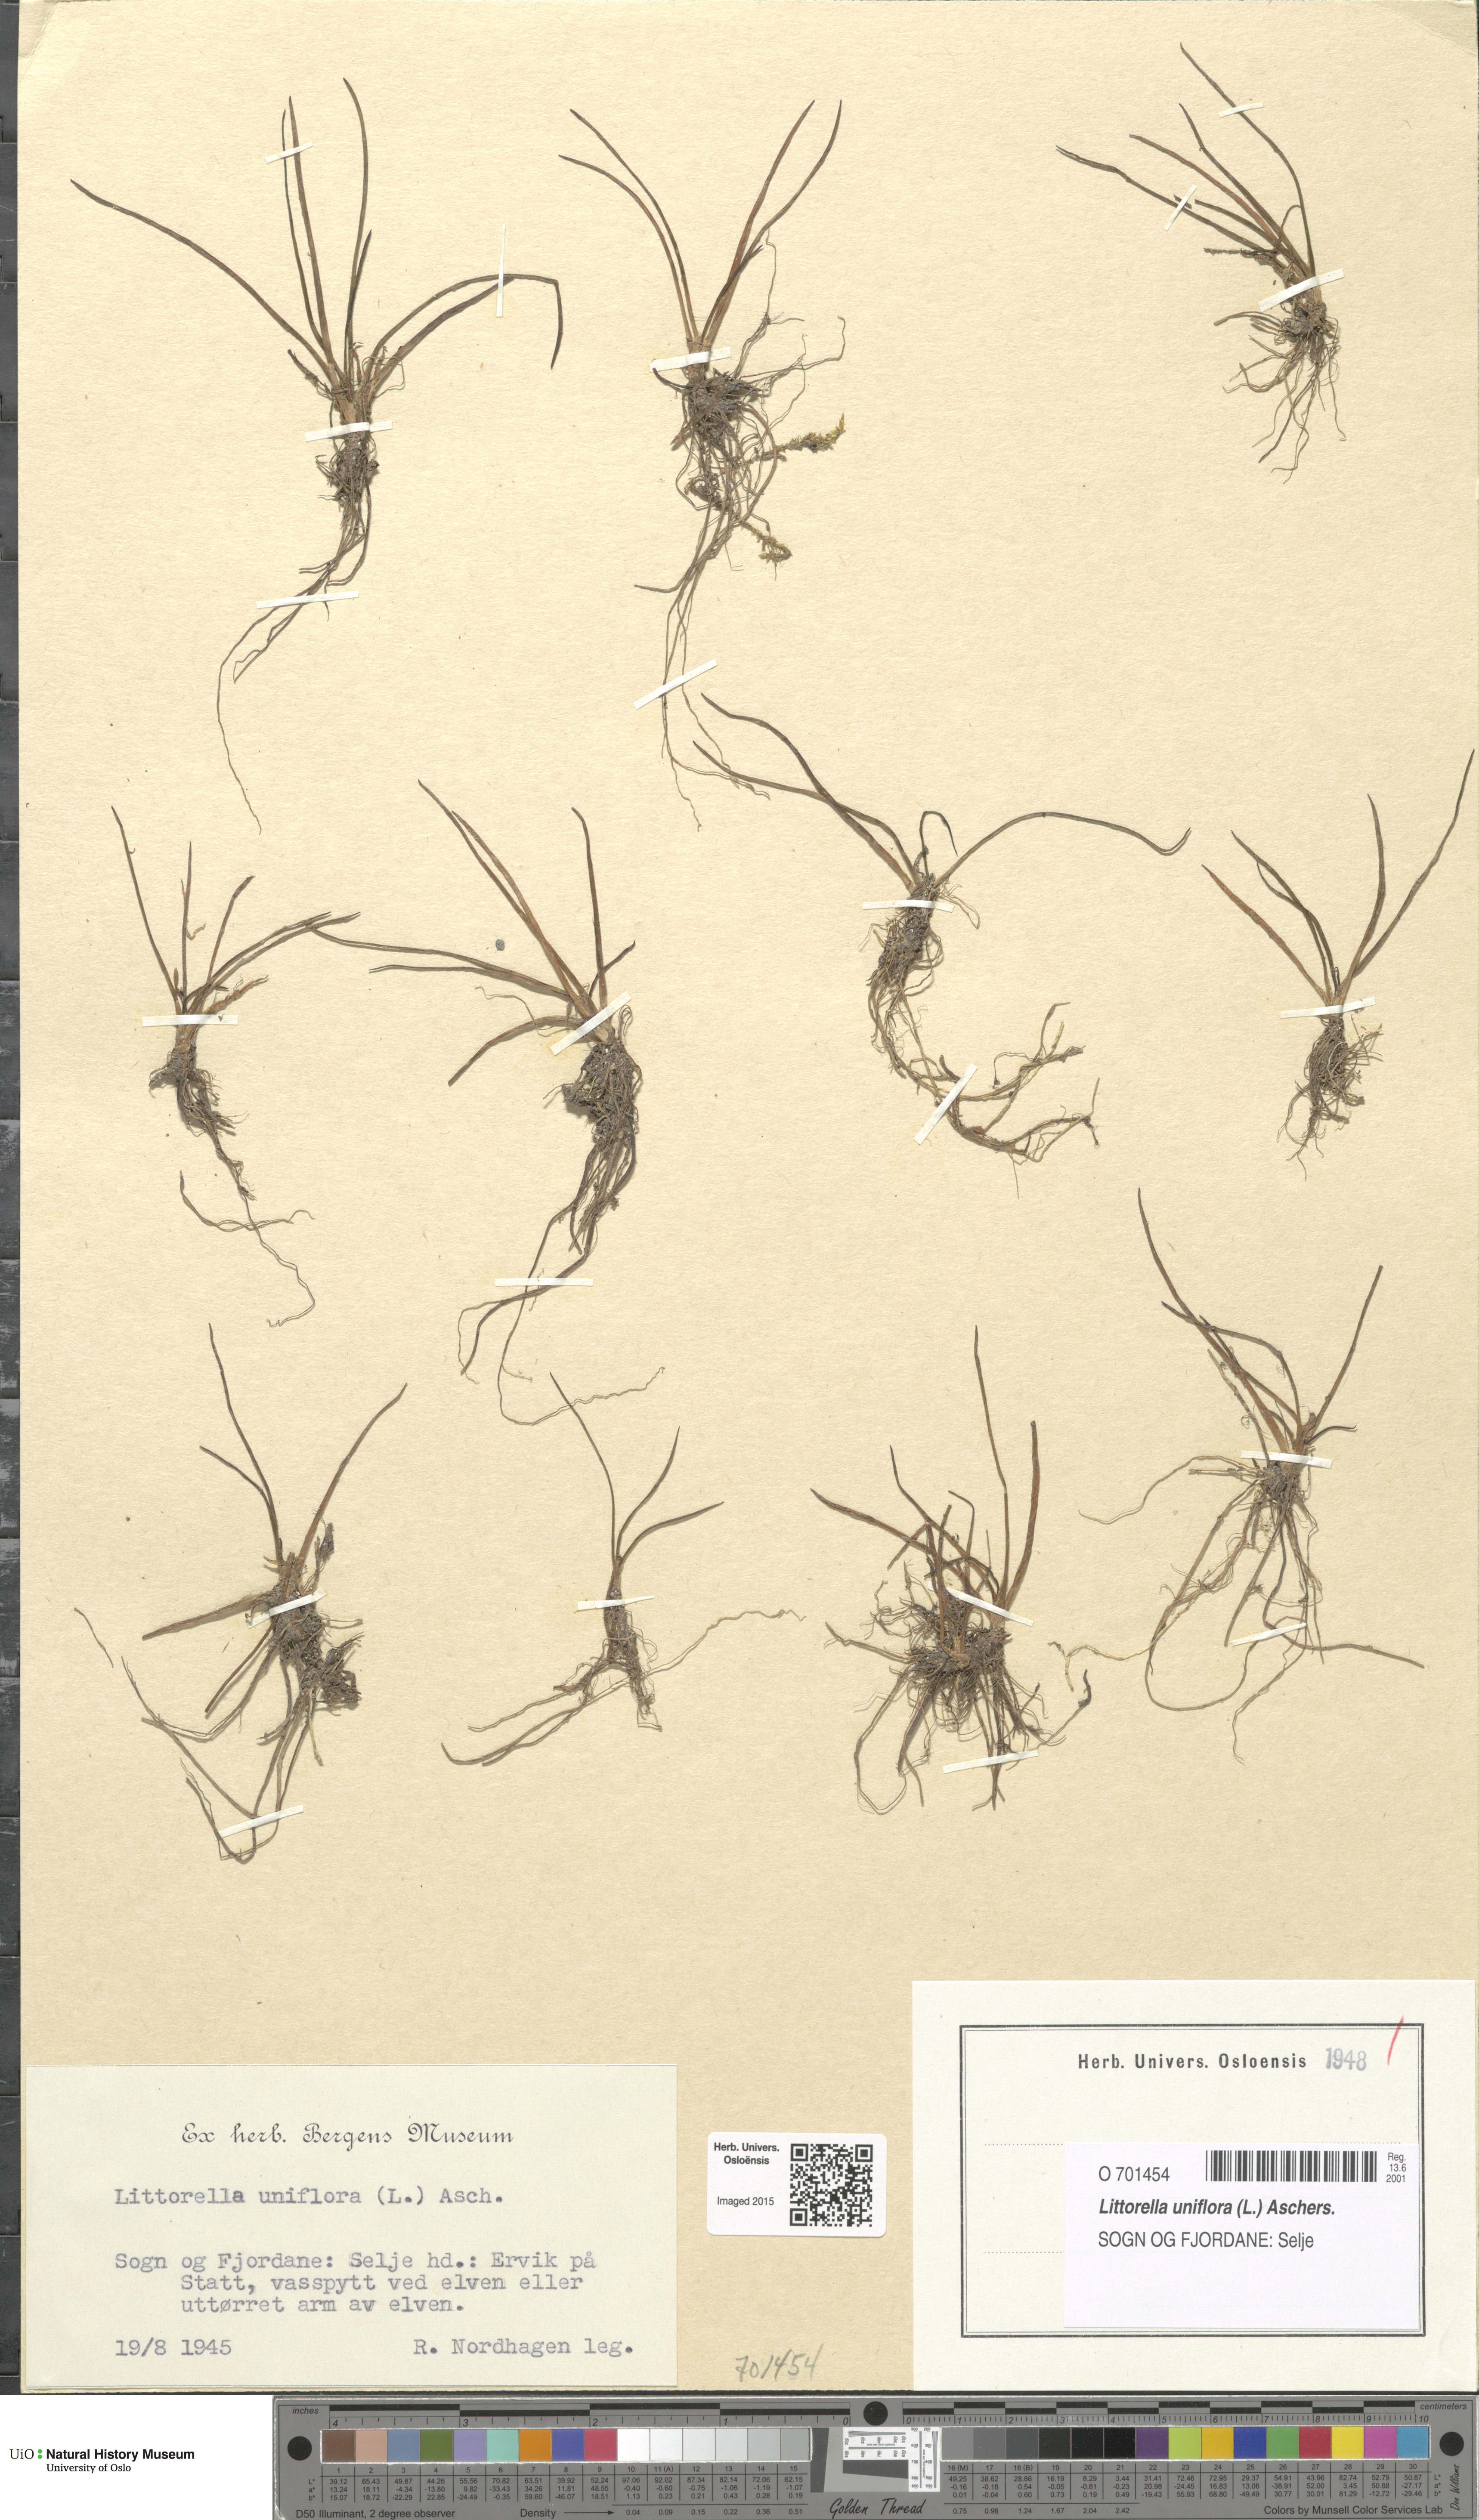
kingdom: Plantae
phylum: Tracheophyta
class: Magnoliopsida
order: Lamiales
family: Plantaginaceae
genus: Littorella
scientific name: Littorella uniflora
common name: Shoreweed
